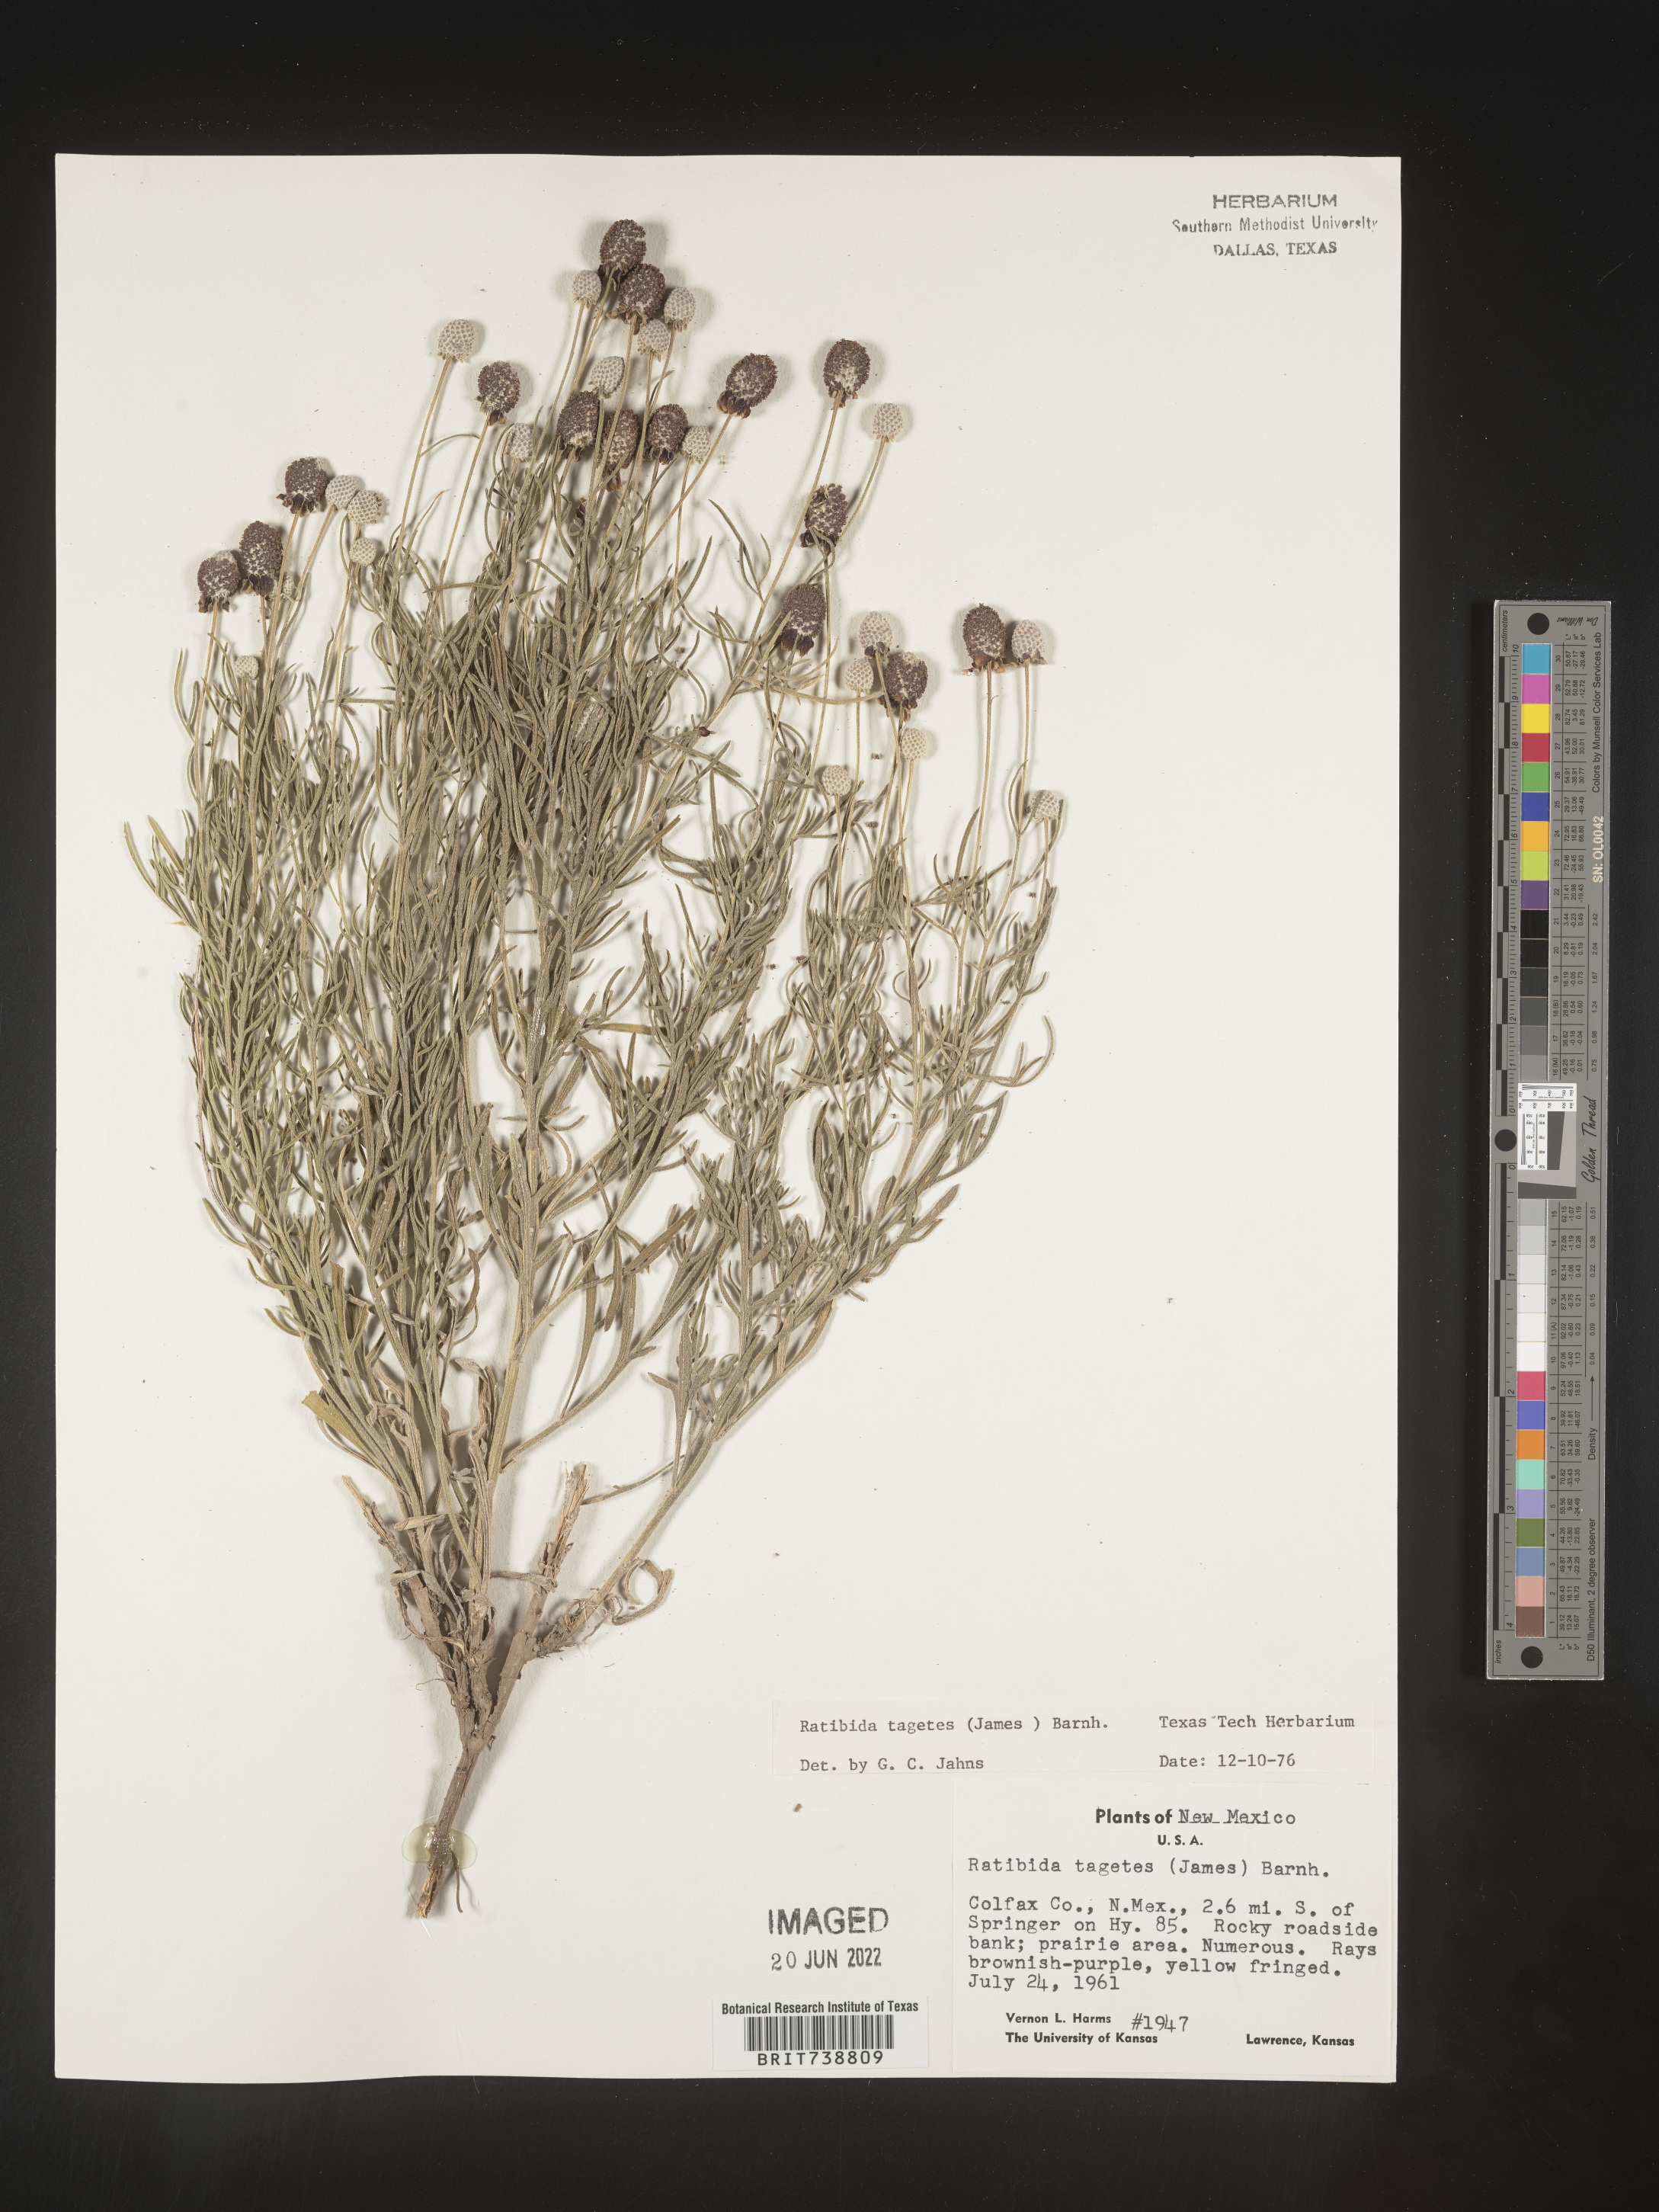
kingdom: Plantae
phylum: Tracheophyta
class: Magnoliopsida
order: Asterales
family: Asteraceae
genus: Ratibida
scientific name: Ratibida tagetes
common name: Green mexican-hat
